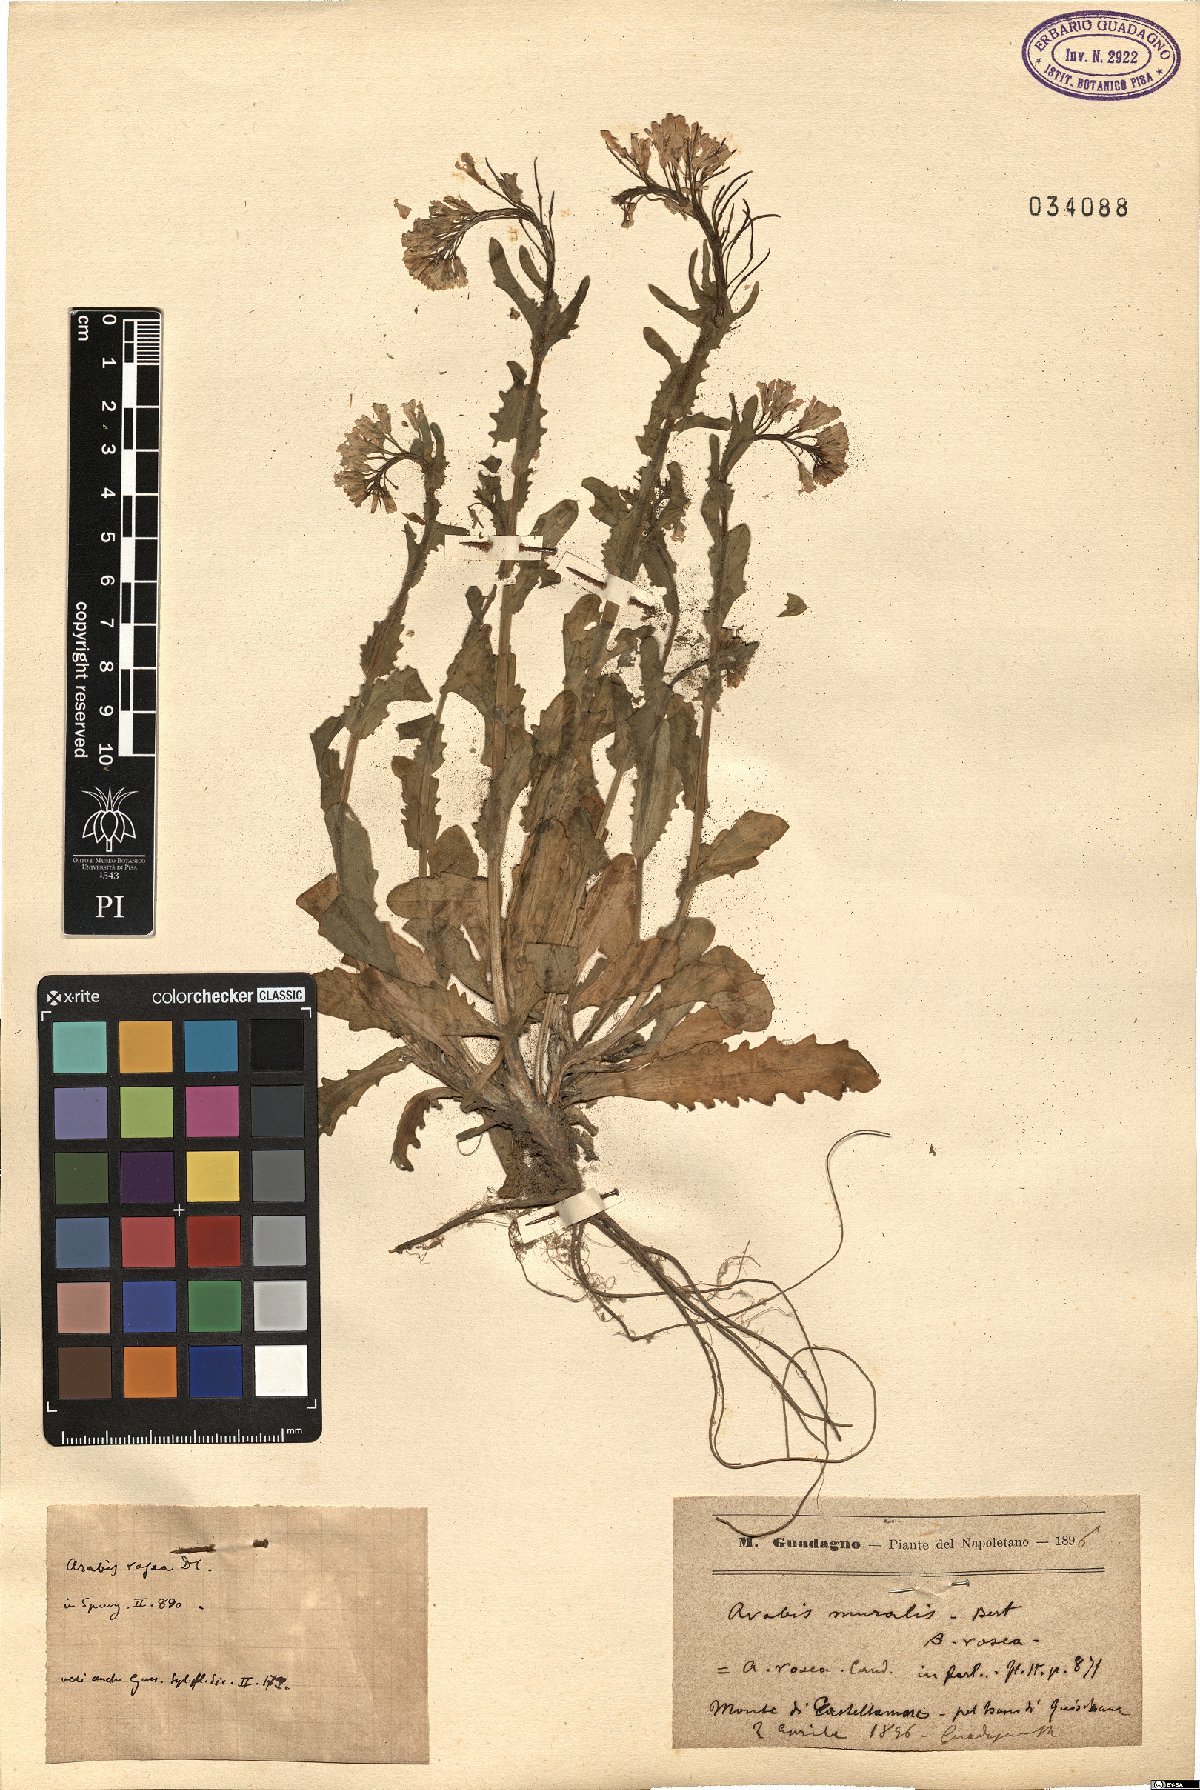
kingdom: Plantae
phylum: Tracheophyta
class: Magnoliopsida
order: Brassicales
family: Brassicaceae
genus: Arabis
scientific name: Arabis collina
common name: Rosy cress
